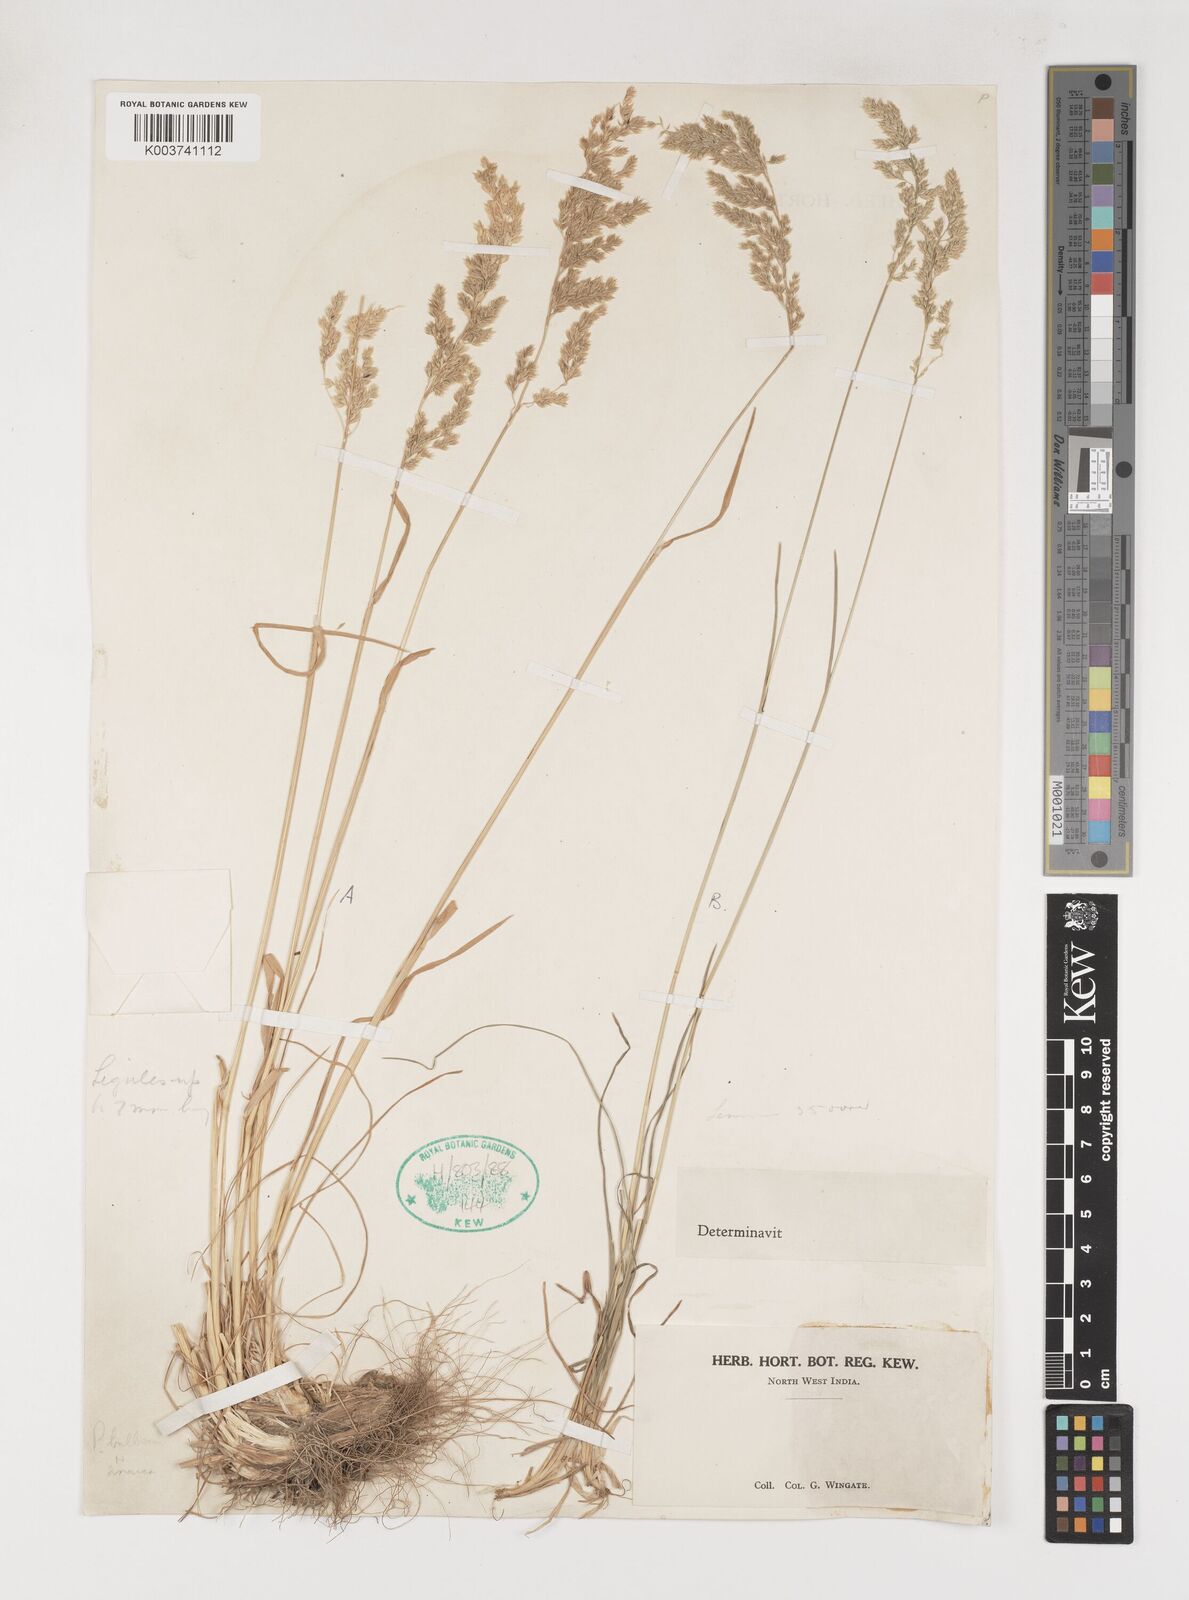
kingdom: Plantae
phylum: Tracheophyta
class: Liliopsida
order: Poales
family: Poaceae
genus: Poa
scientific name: Poa sinaica
